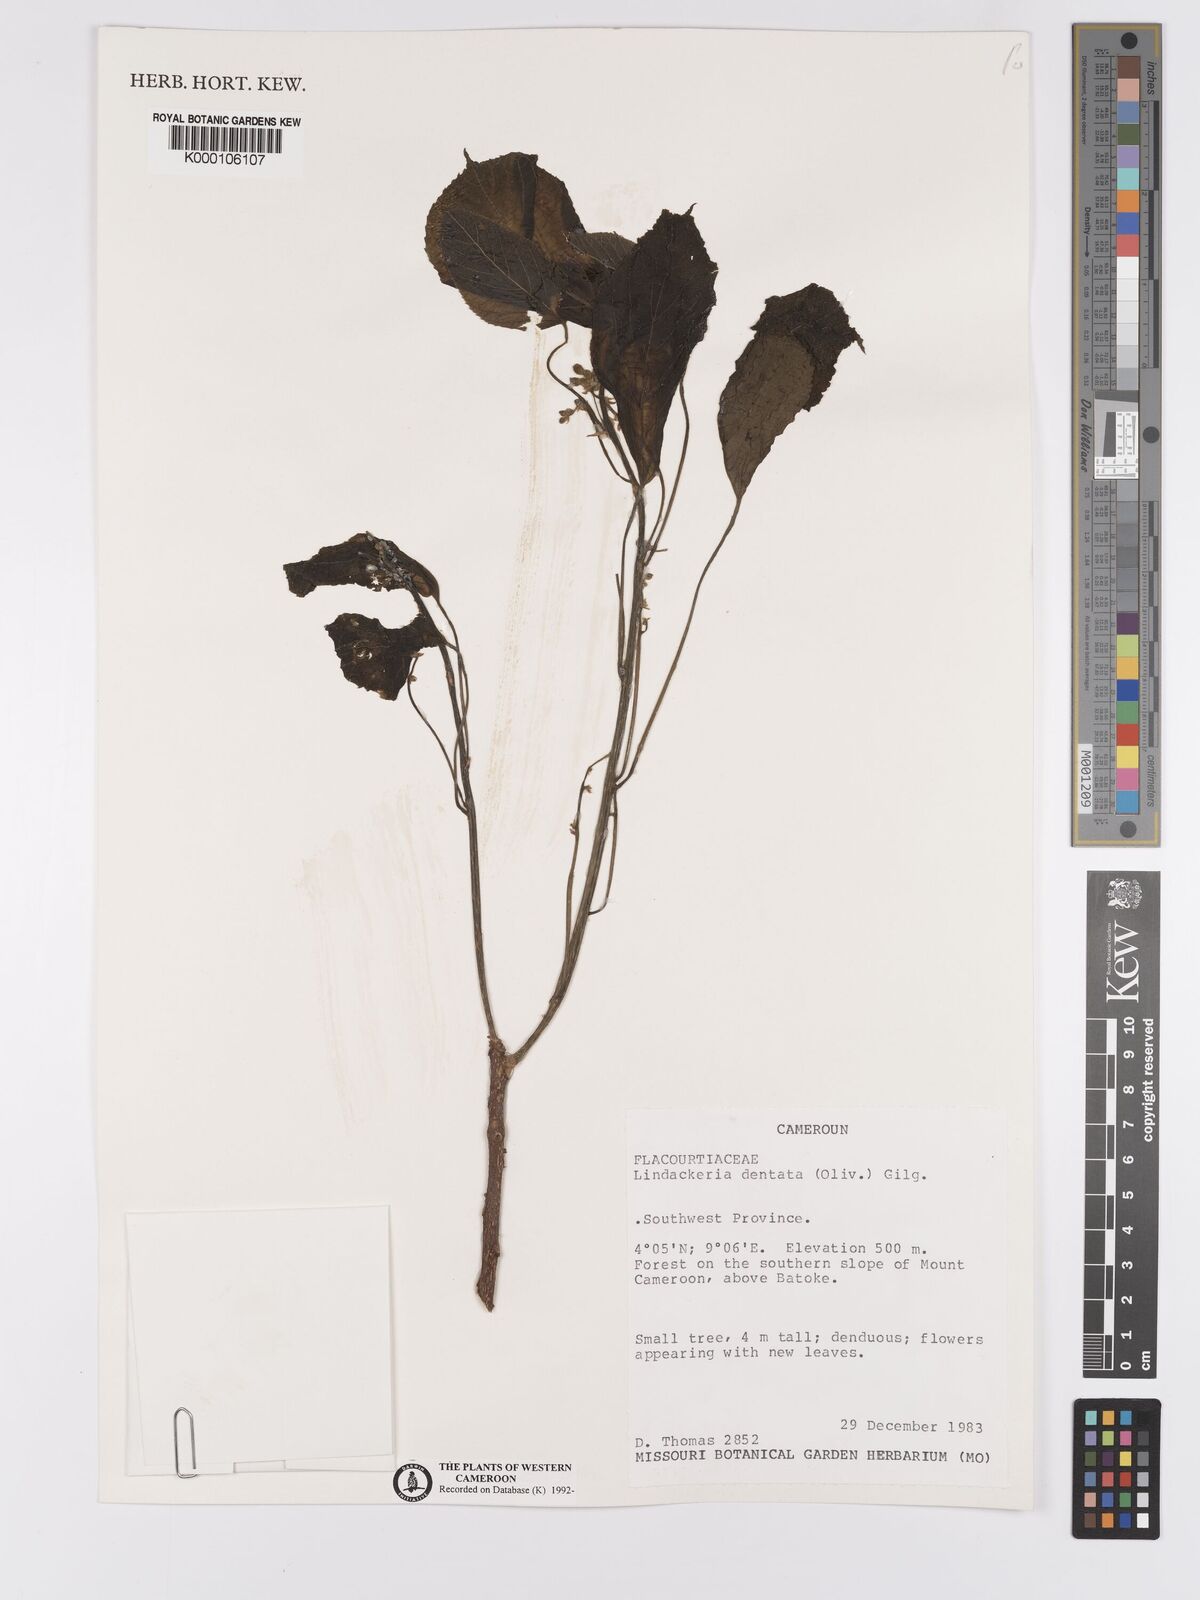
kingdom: Plantae
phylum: Tracheophyta
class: Magnoliopsida
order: Malpighiales
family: Achariaceae
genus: Lindackeria
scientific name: Lindackeria dentata
